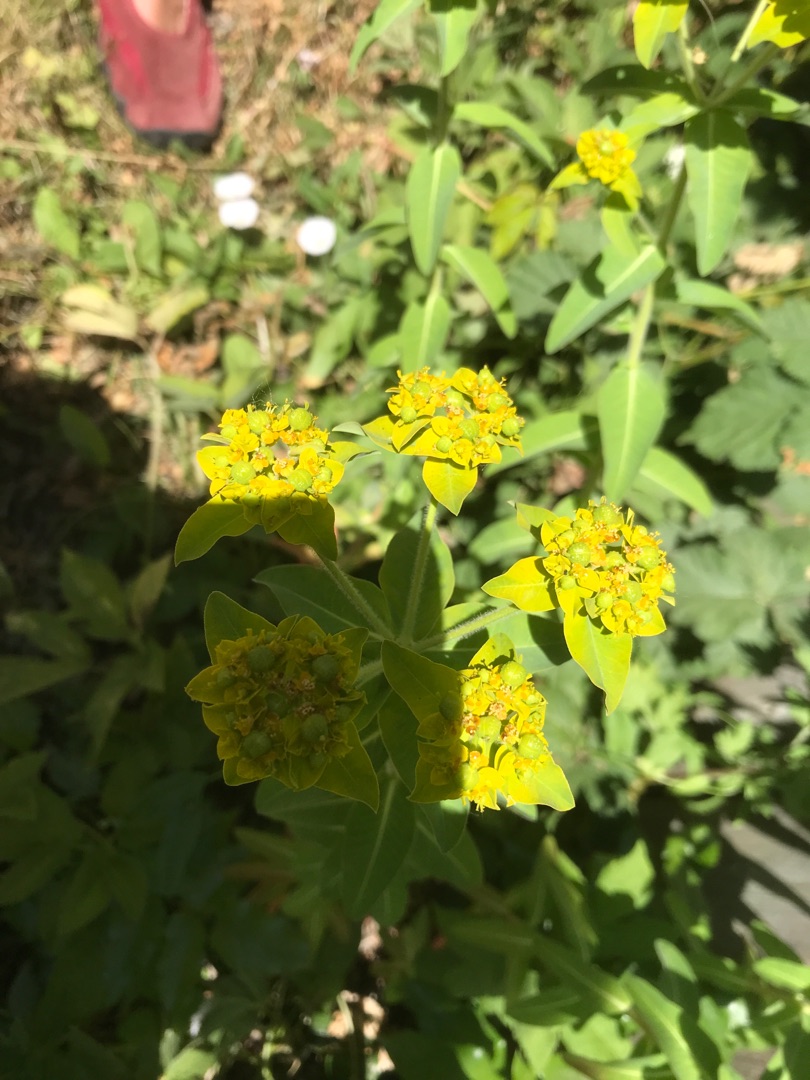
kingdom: Plantae
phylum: Tracheophyta
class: Magnoliopsida
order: Malpighiales
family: Euphorbiaceae
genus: Euphorbia
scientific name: Euphorbia oblongata
